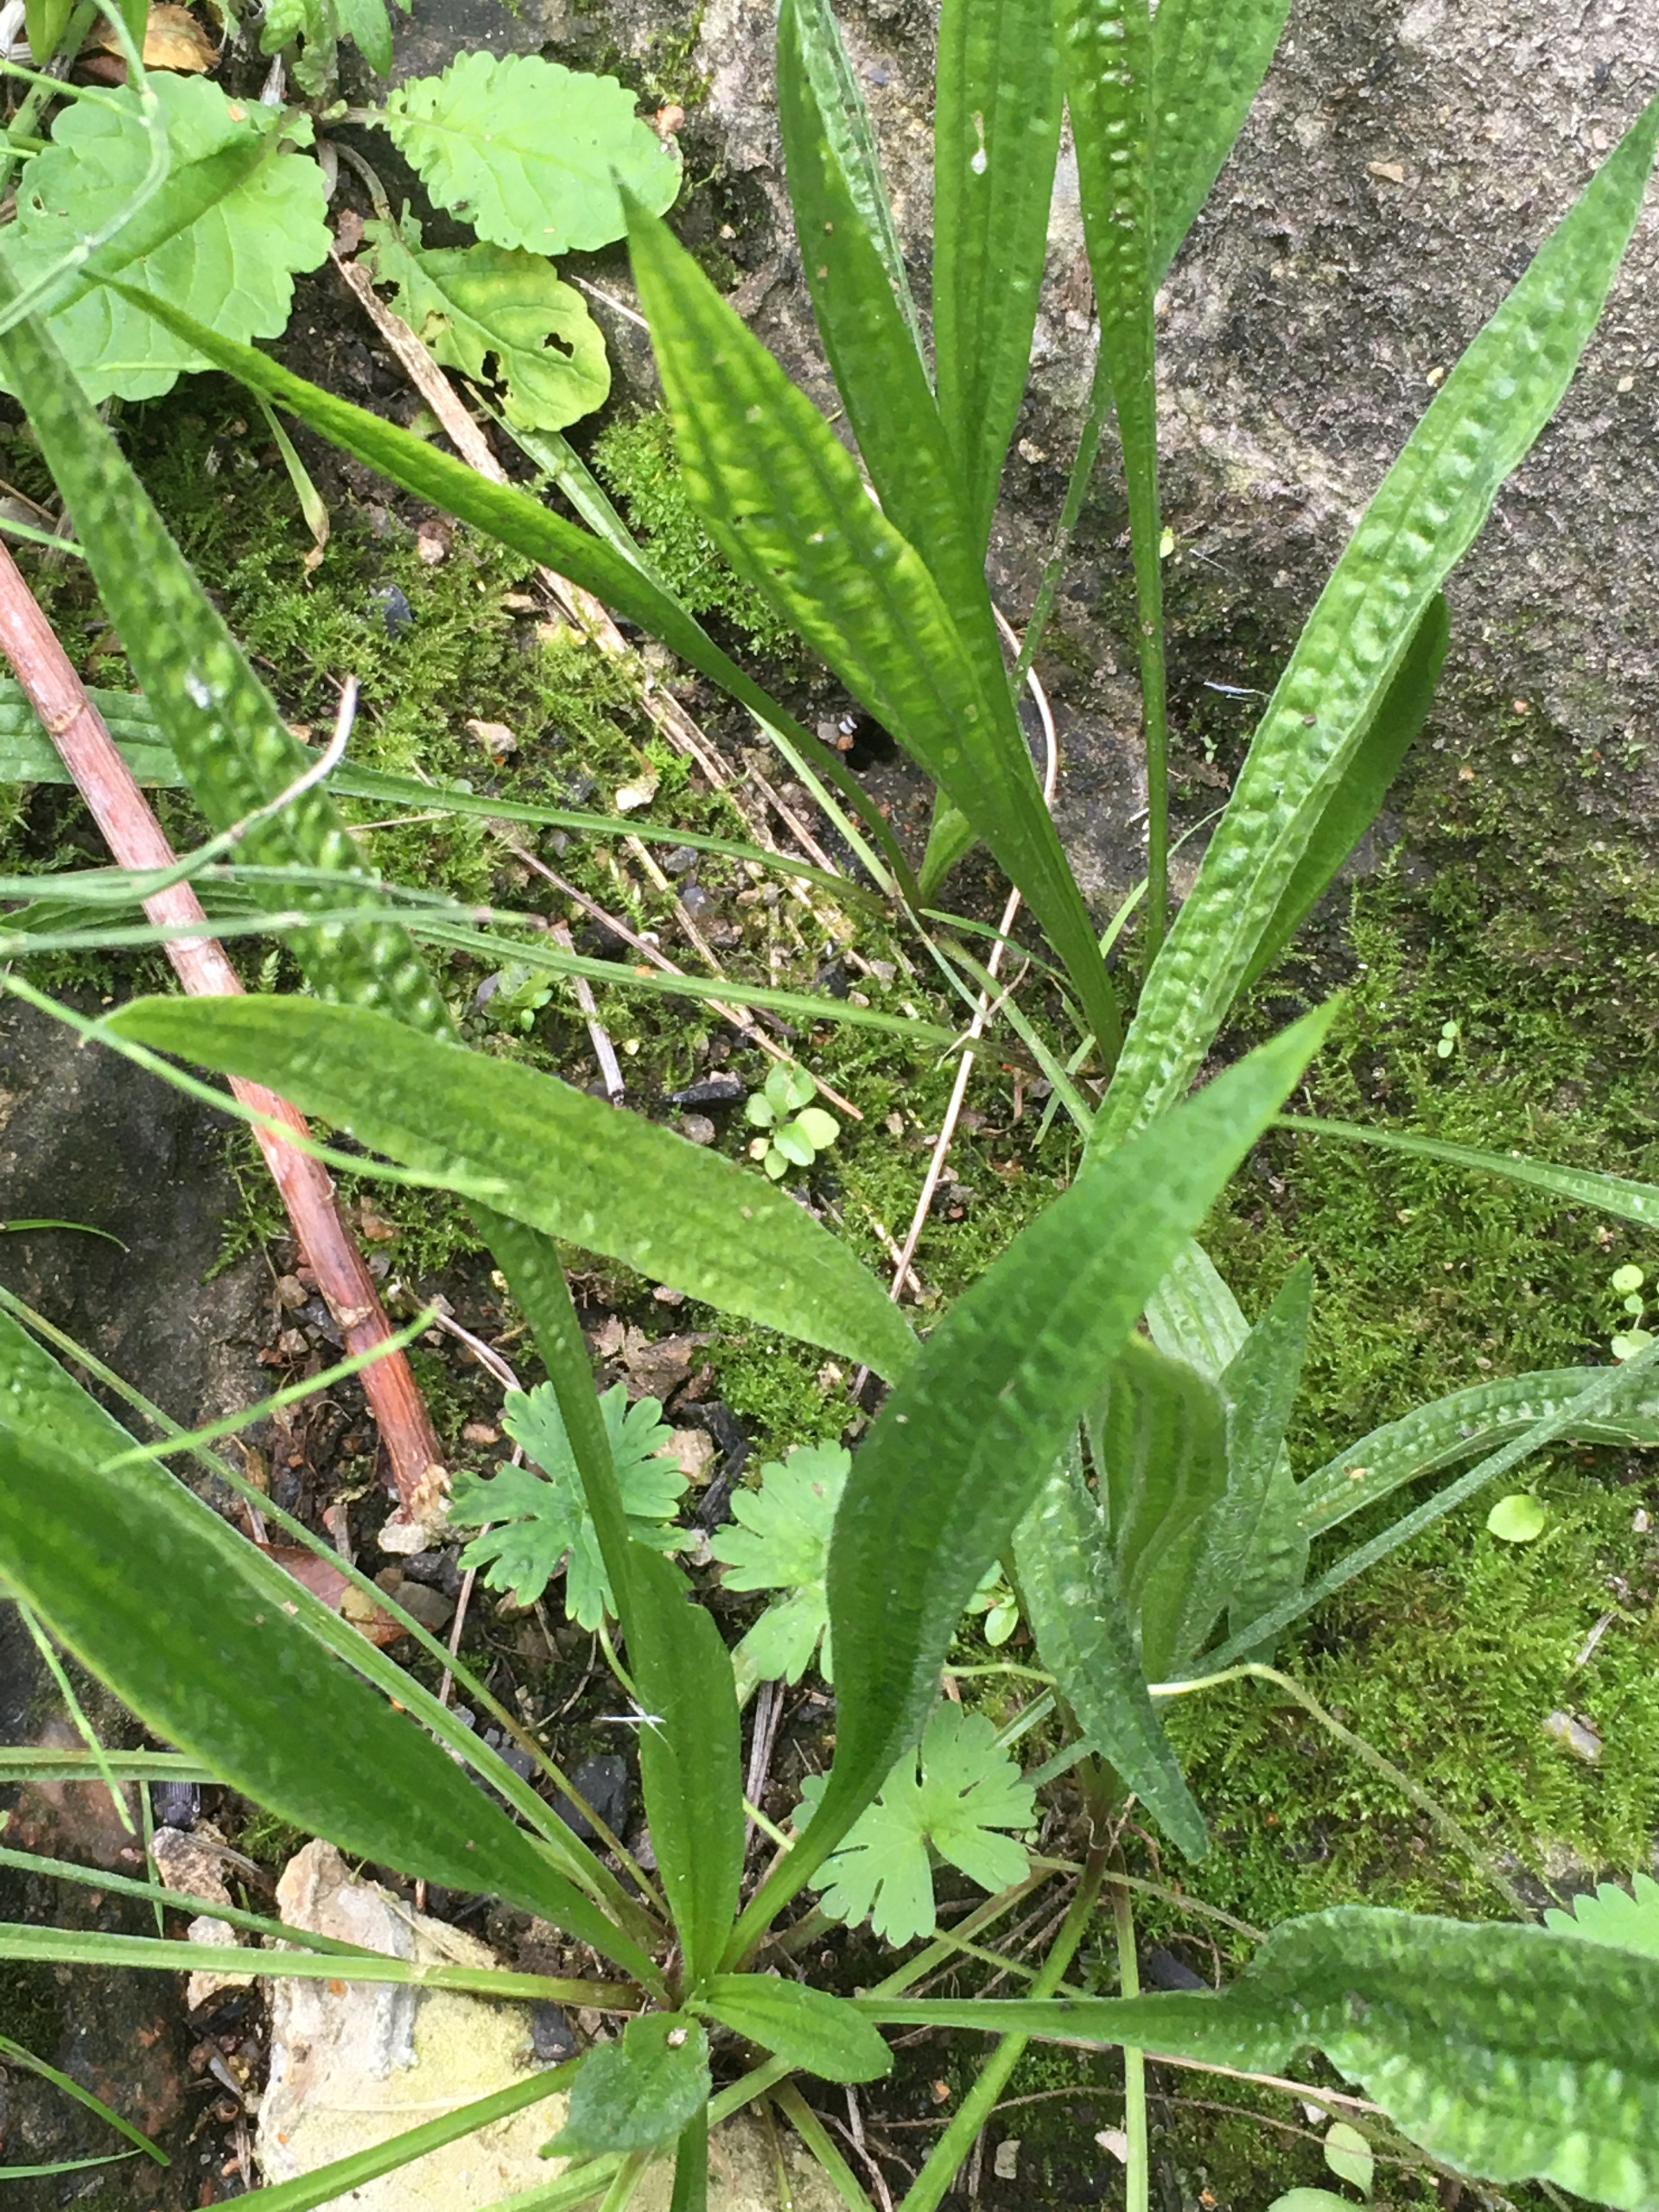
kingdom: Plantae
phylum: Tracheophyta
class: Magnoliopsida
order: Lamiales
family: Plantaginaceae
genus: Plantago
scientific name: Plantago lanceolata
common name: Lancet-vejbred
